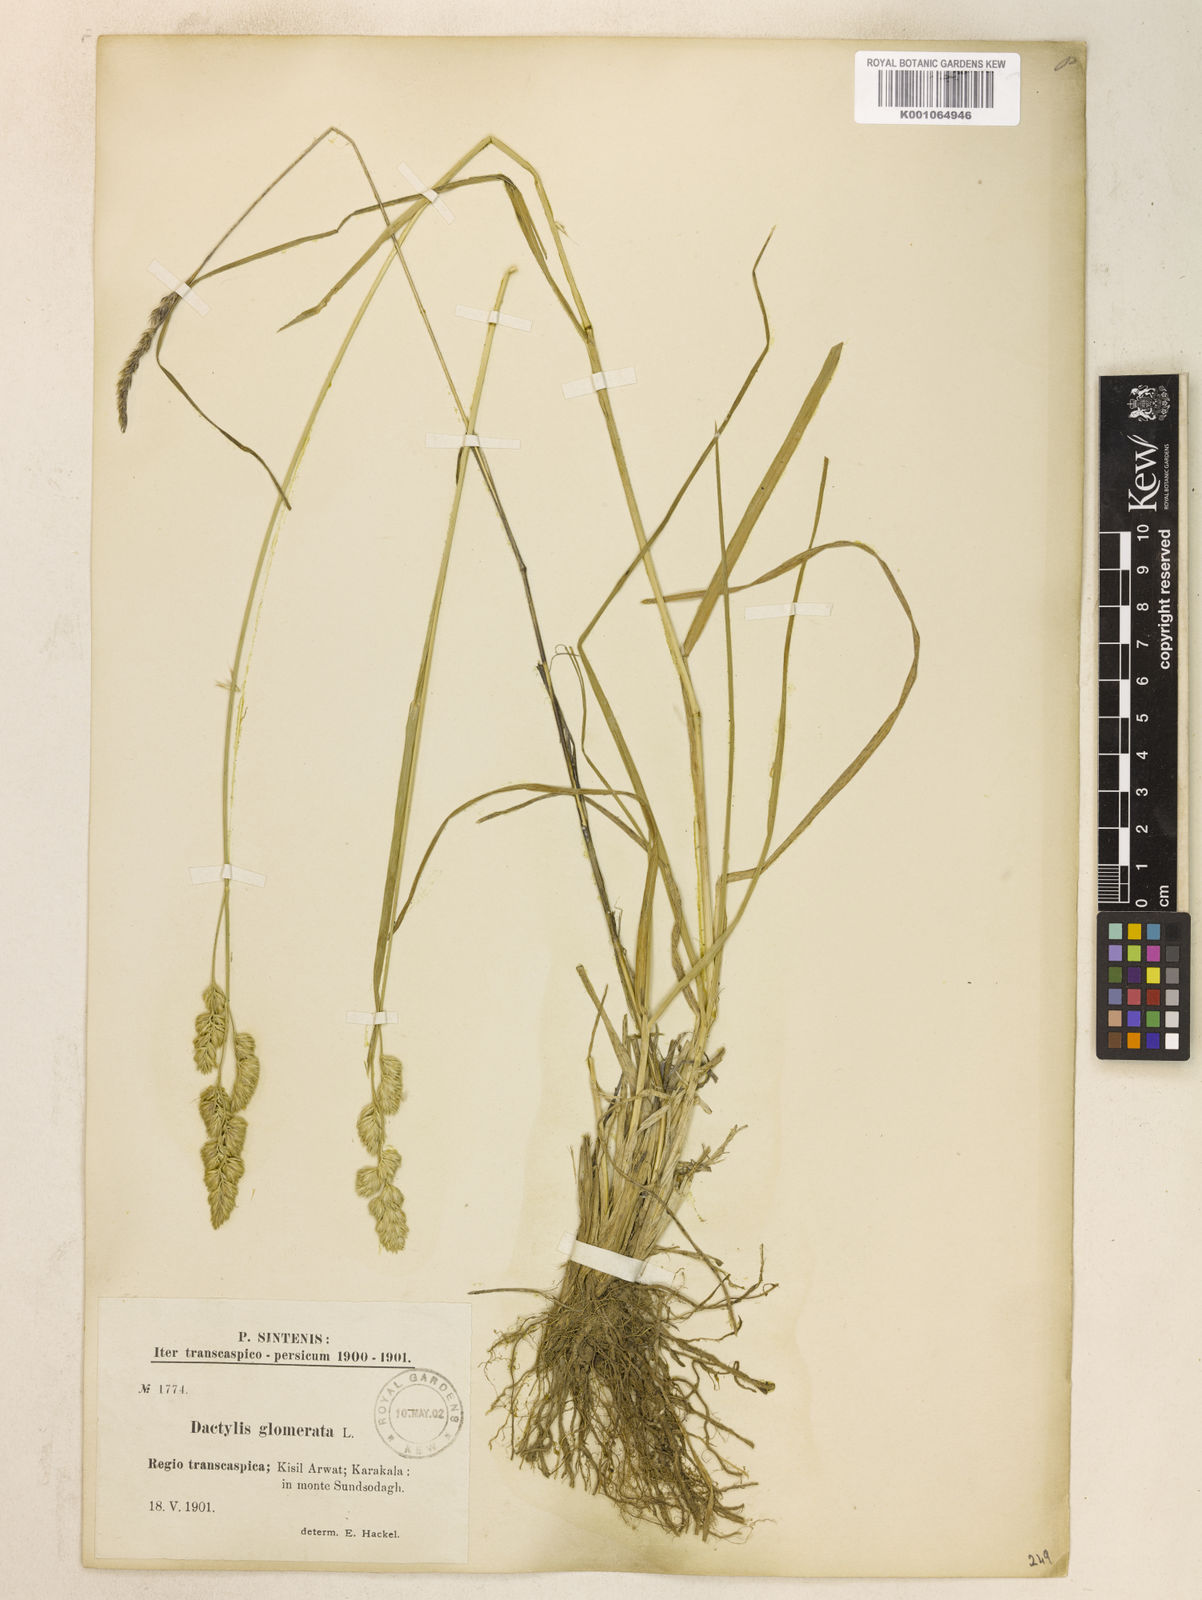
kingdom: Plantae
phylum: Tracheophyta
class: Liliopsida
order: Poales
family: Poaceae
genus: Dactylis
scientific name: Dactylis glomerata
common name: Orchardgrass
